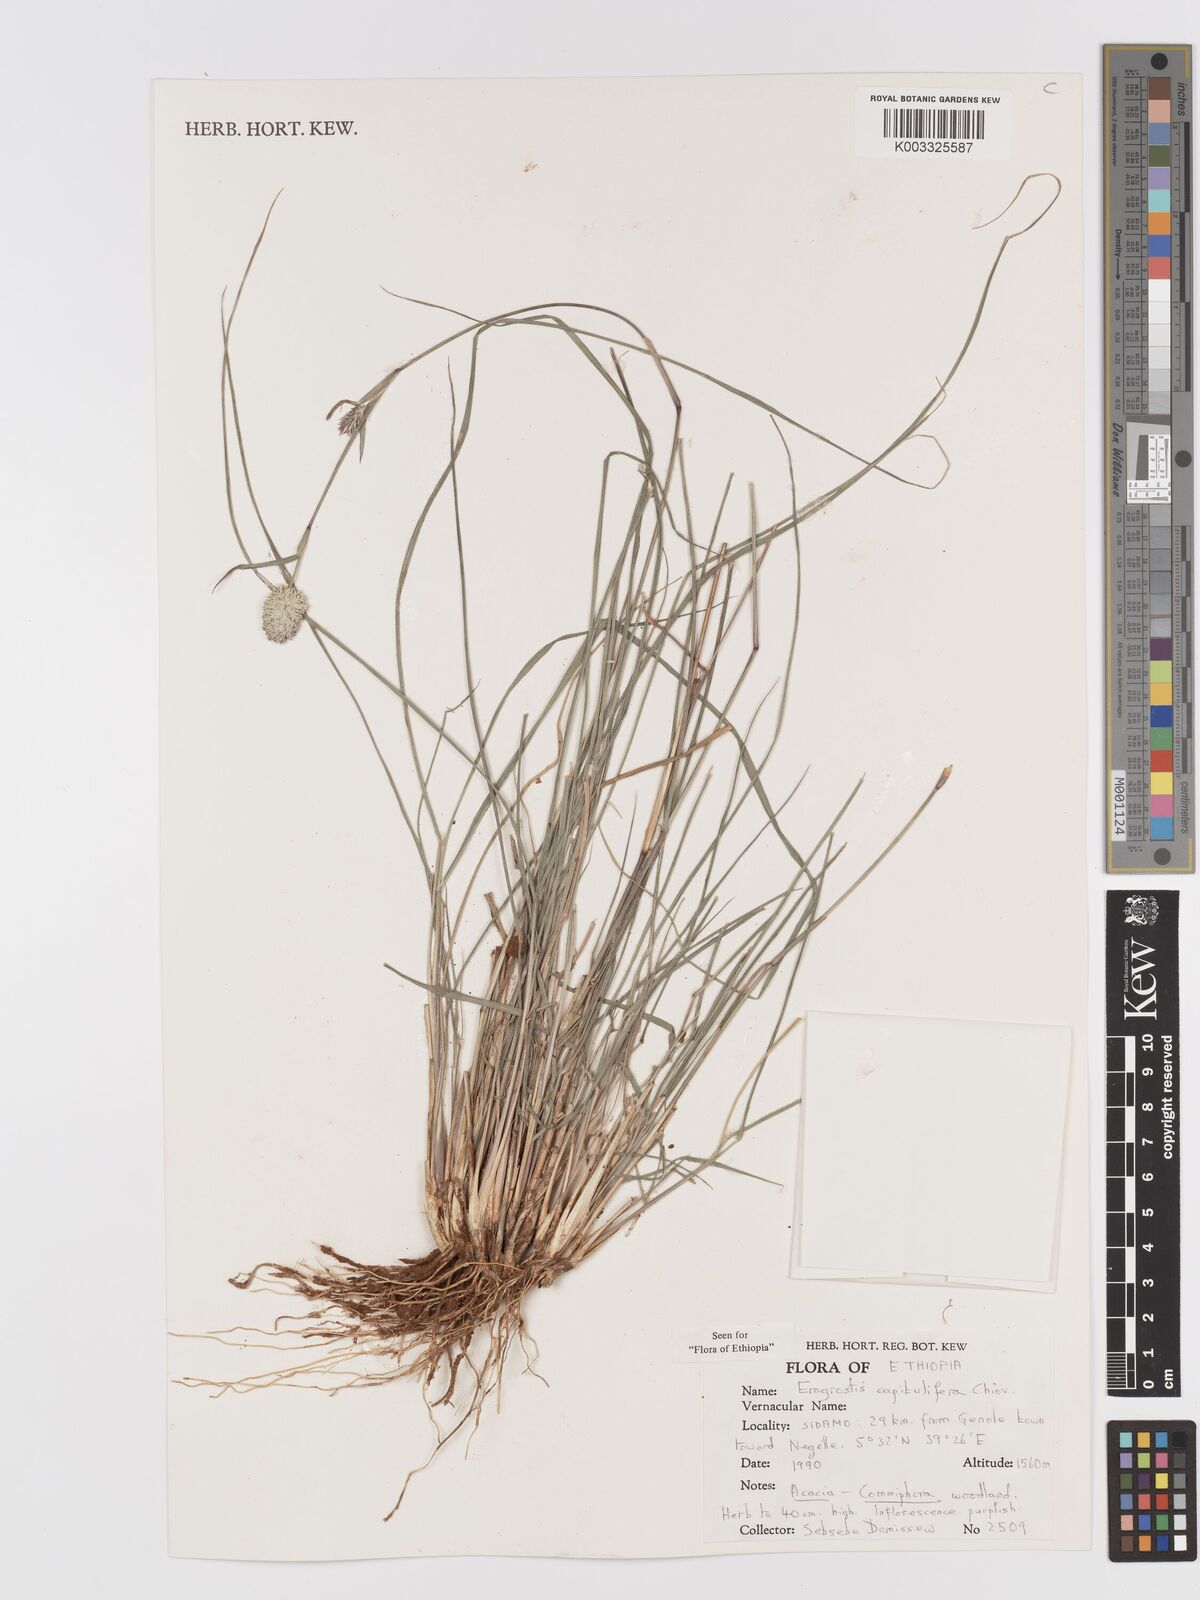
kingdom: Plantae
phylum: Tracheophyta
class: Liliopsida
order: Poales
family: Poaceae
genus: Eragrostis
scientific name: Eragrostis capitulifera
